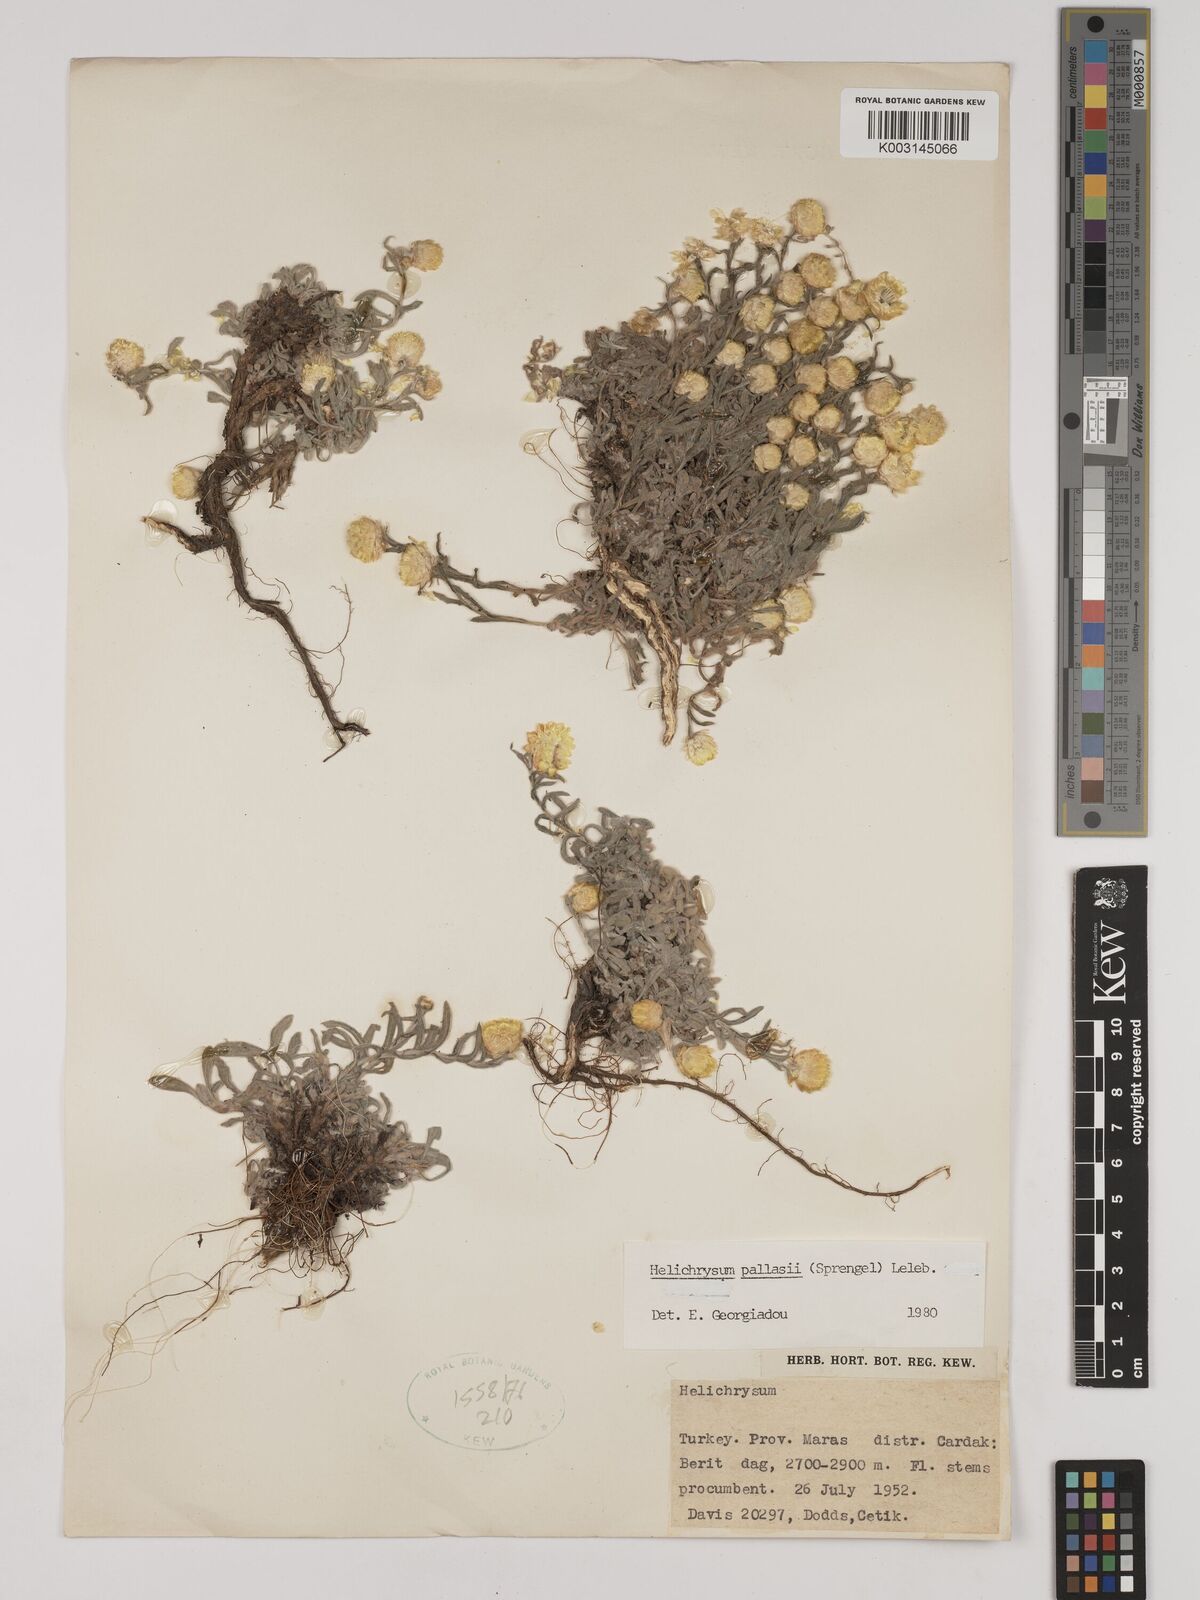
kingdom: Plantae
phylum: Tracheophyta
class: Magnoliopsida
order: Asterales
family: Asteraceae
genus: Helichrysum
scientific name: Helichrysum pallasii
